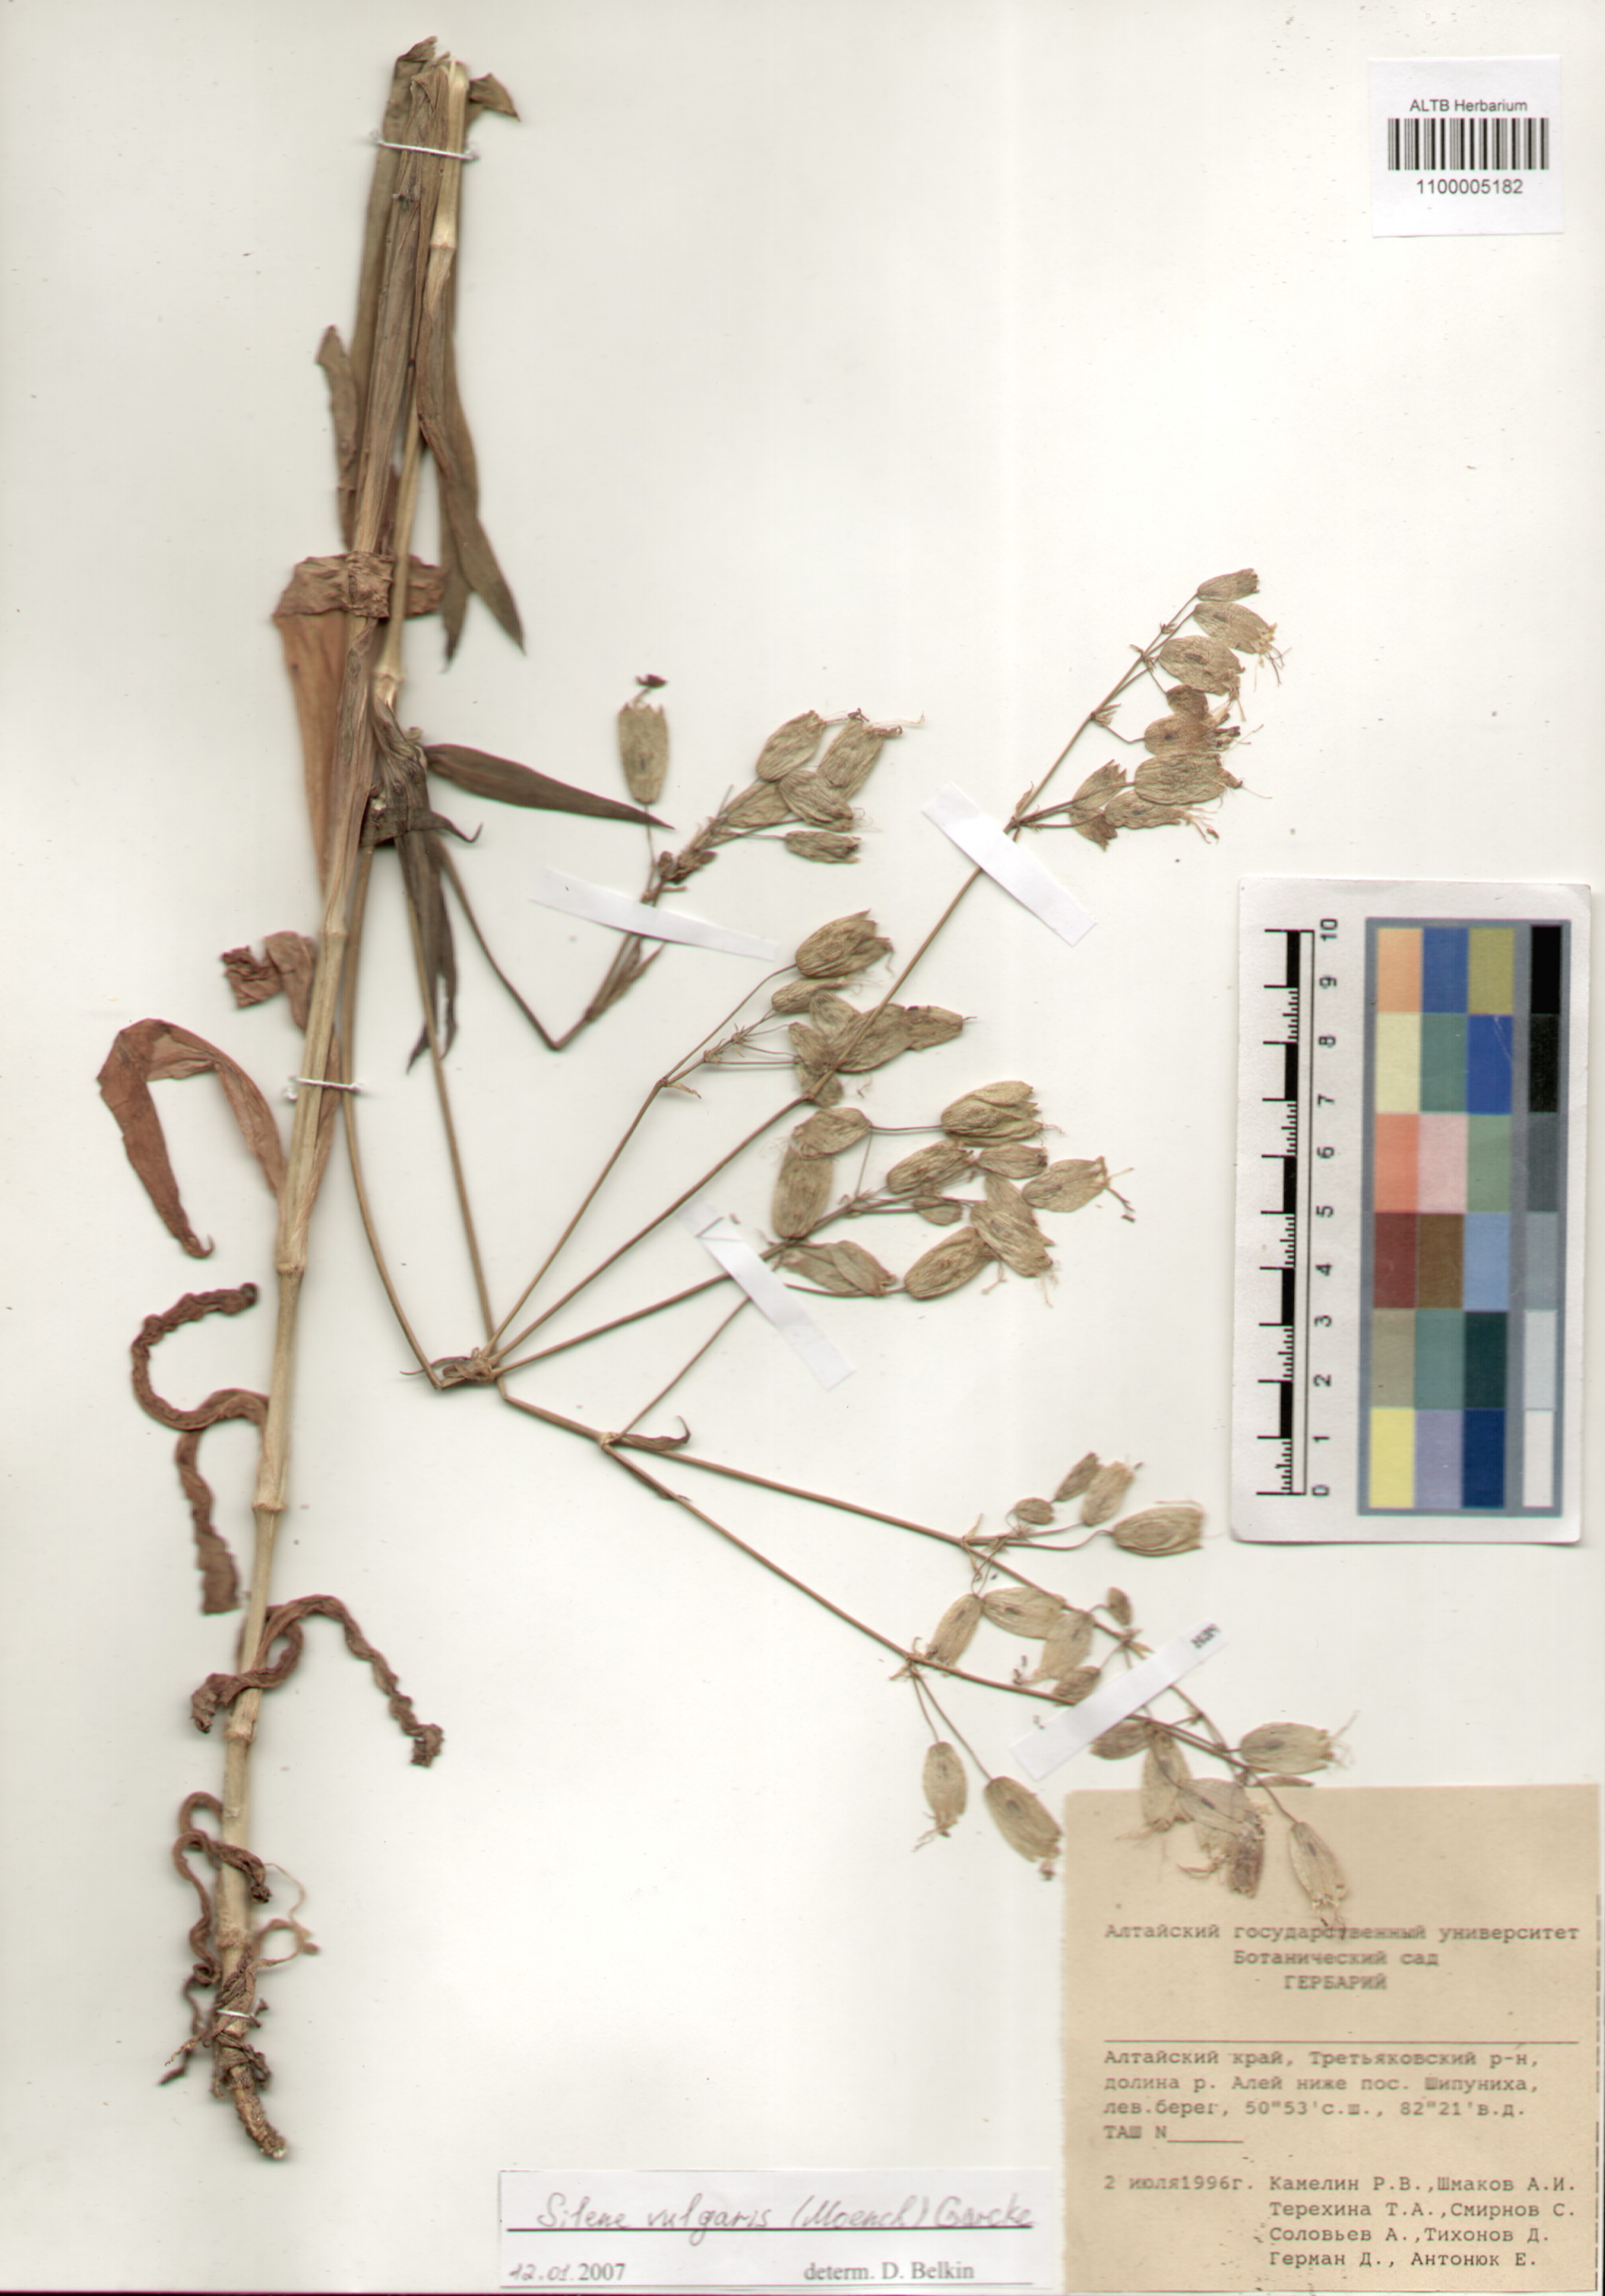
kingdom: Plantae
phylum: Tracheophyta
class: Magnoliopsida
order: Caryophyllales
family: Caryophyllaceae
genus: Silene
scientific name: Silene vulgaris
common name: Bladder campion
